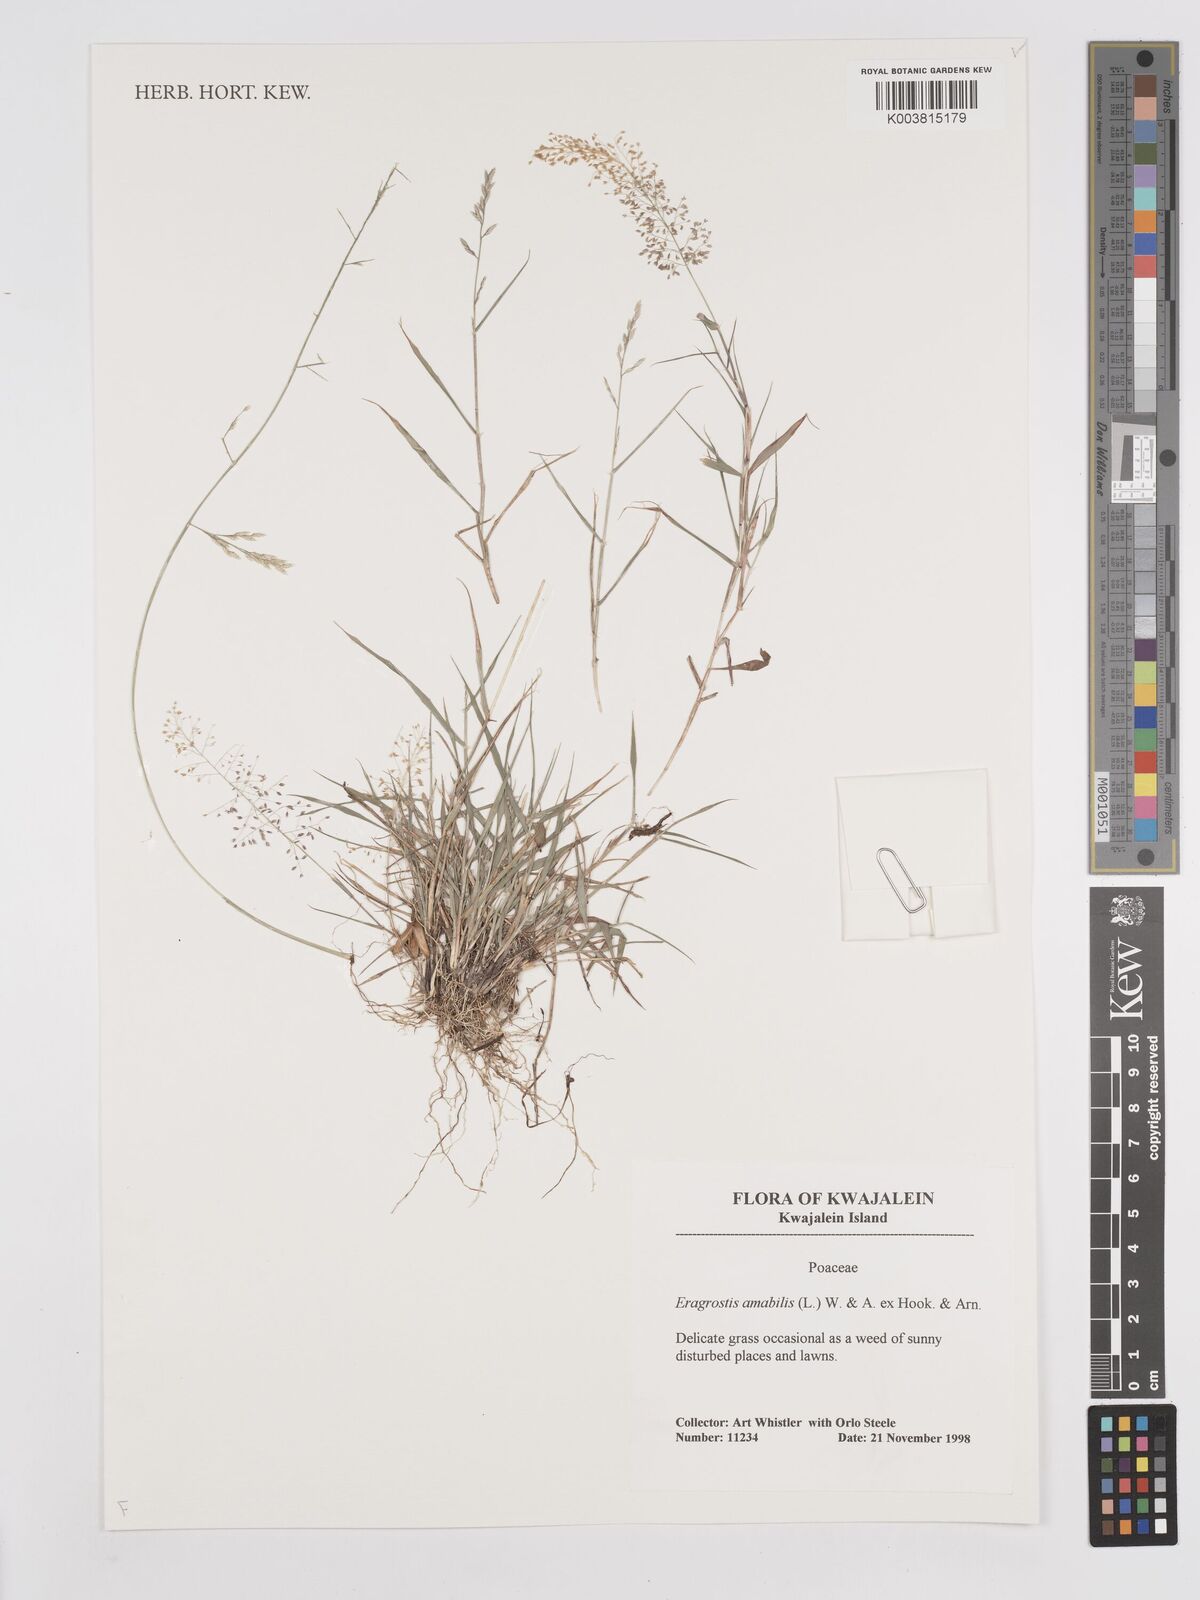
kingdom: Plantae
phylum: Tracheophyta
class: Liliopsida
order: Poales
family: Poaceae
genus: Eragrostis
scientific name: Eragrostis tenella
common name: Japanese lovegrass
